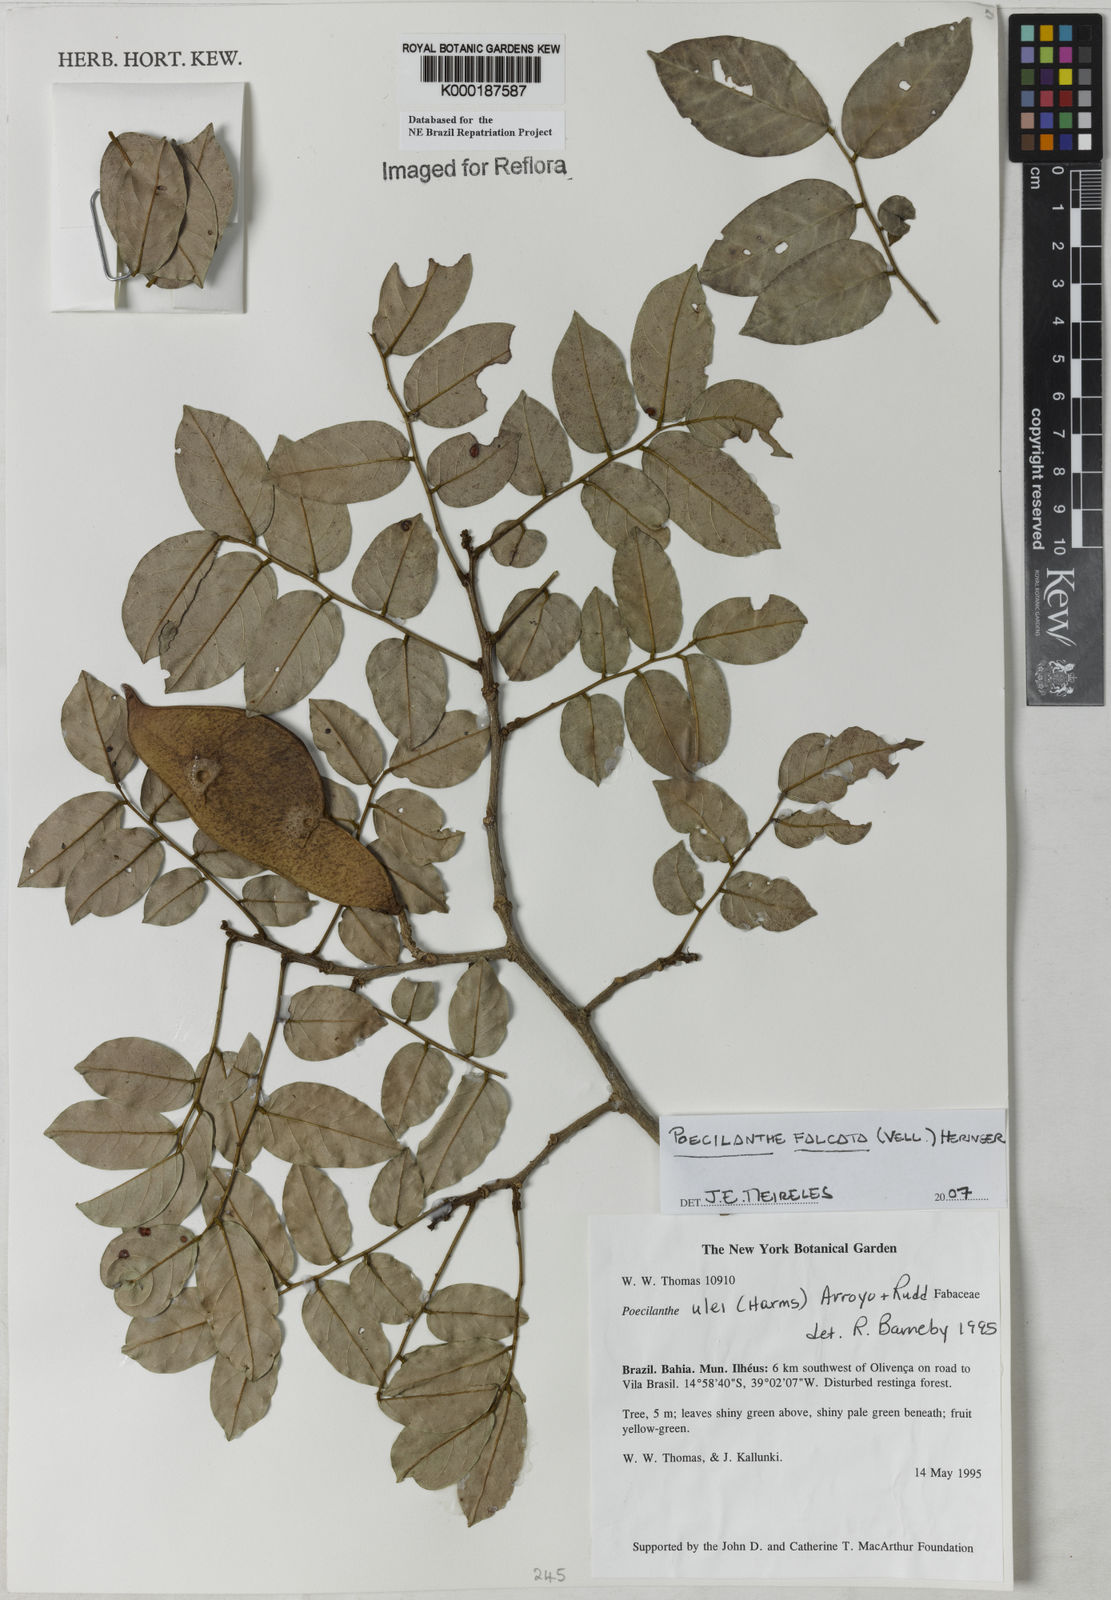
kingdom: Plantae
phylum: Tracheophyta
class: Magnoliopsida
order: Fabales
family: Fabaceae
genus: Poecilanthe
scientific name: Poecilanthe ulei
